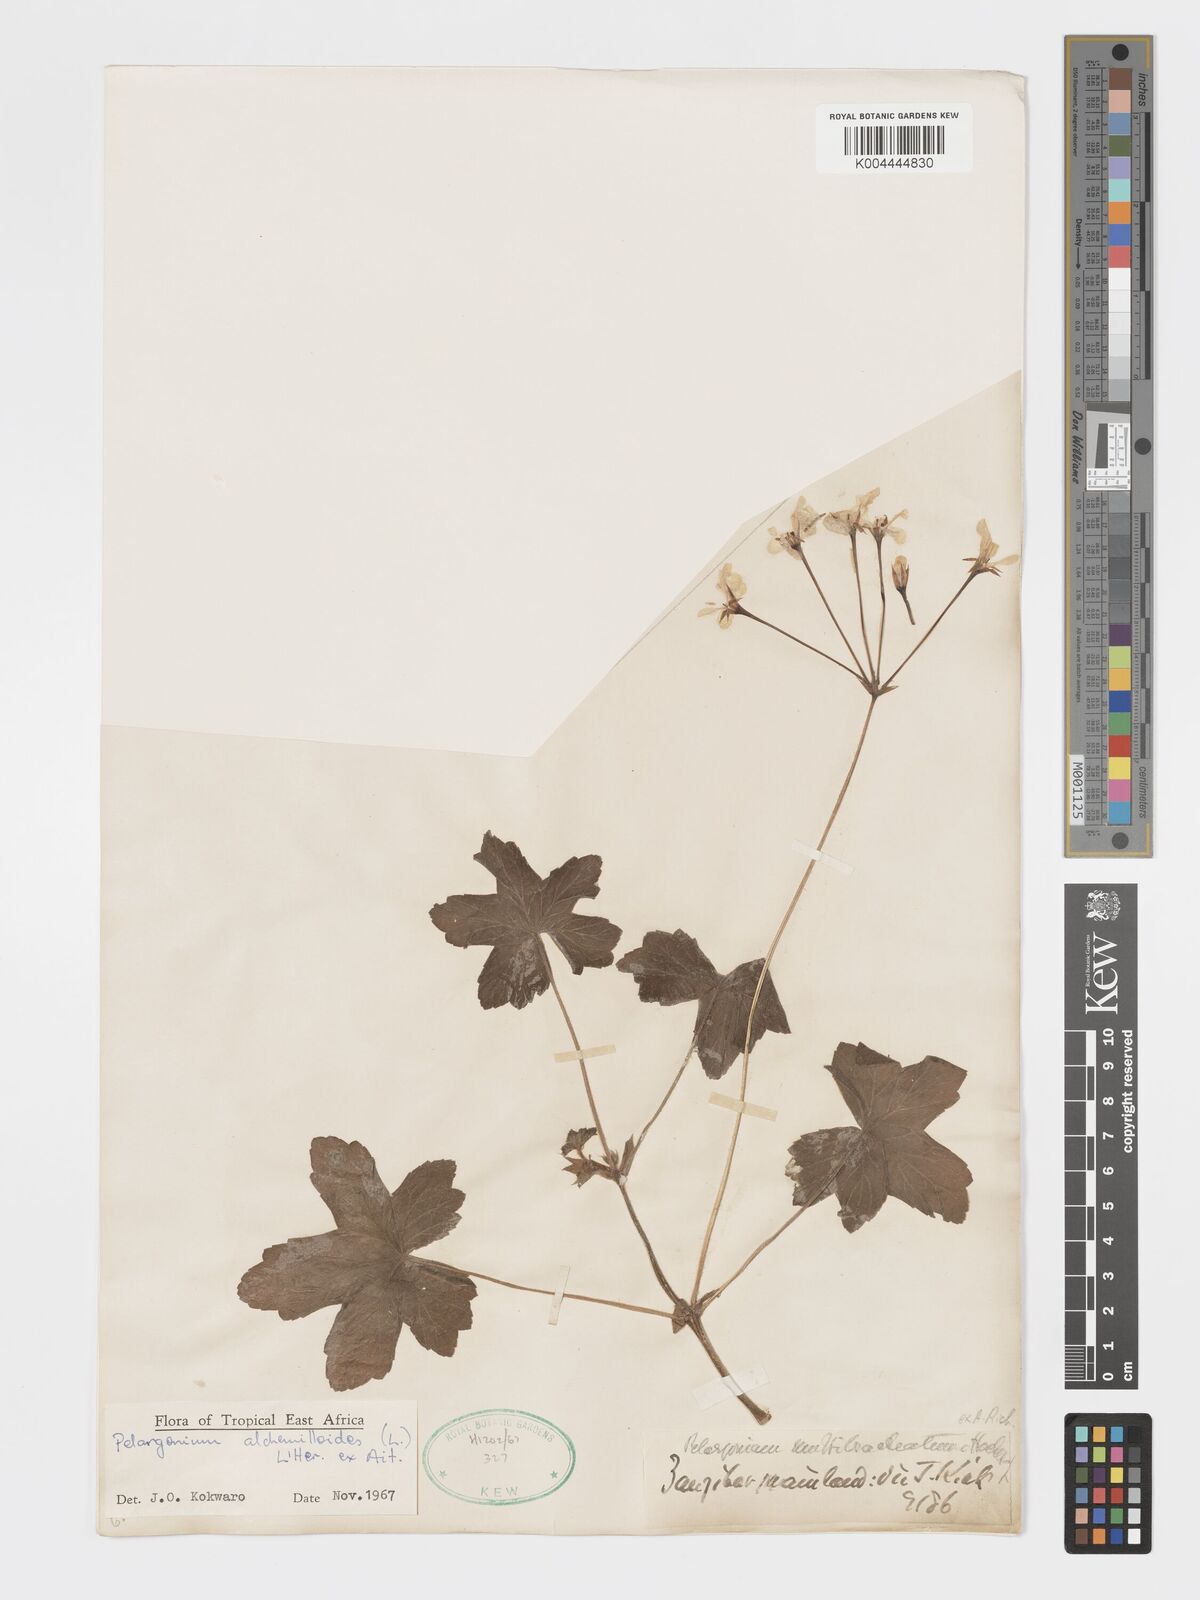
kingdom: Plantae
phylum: Tracheophyta
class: Magnoliopsida
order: Geraniales
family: Geraniaceae
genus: Pelargonium
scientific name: Pelargonium alchemilloides
